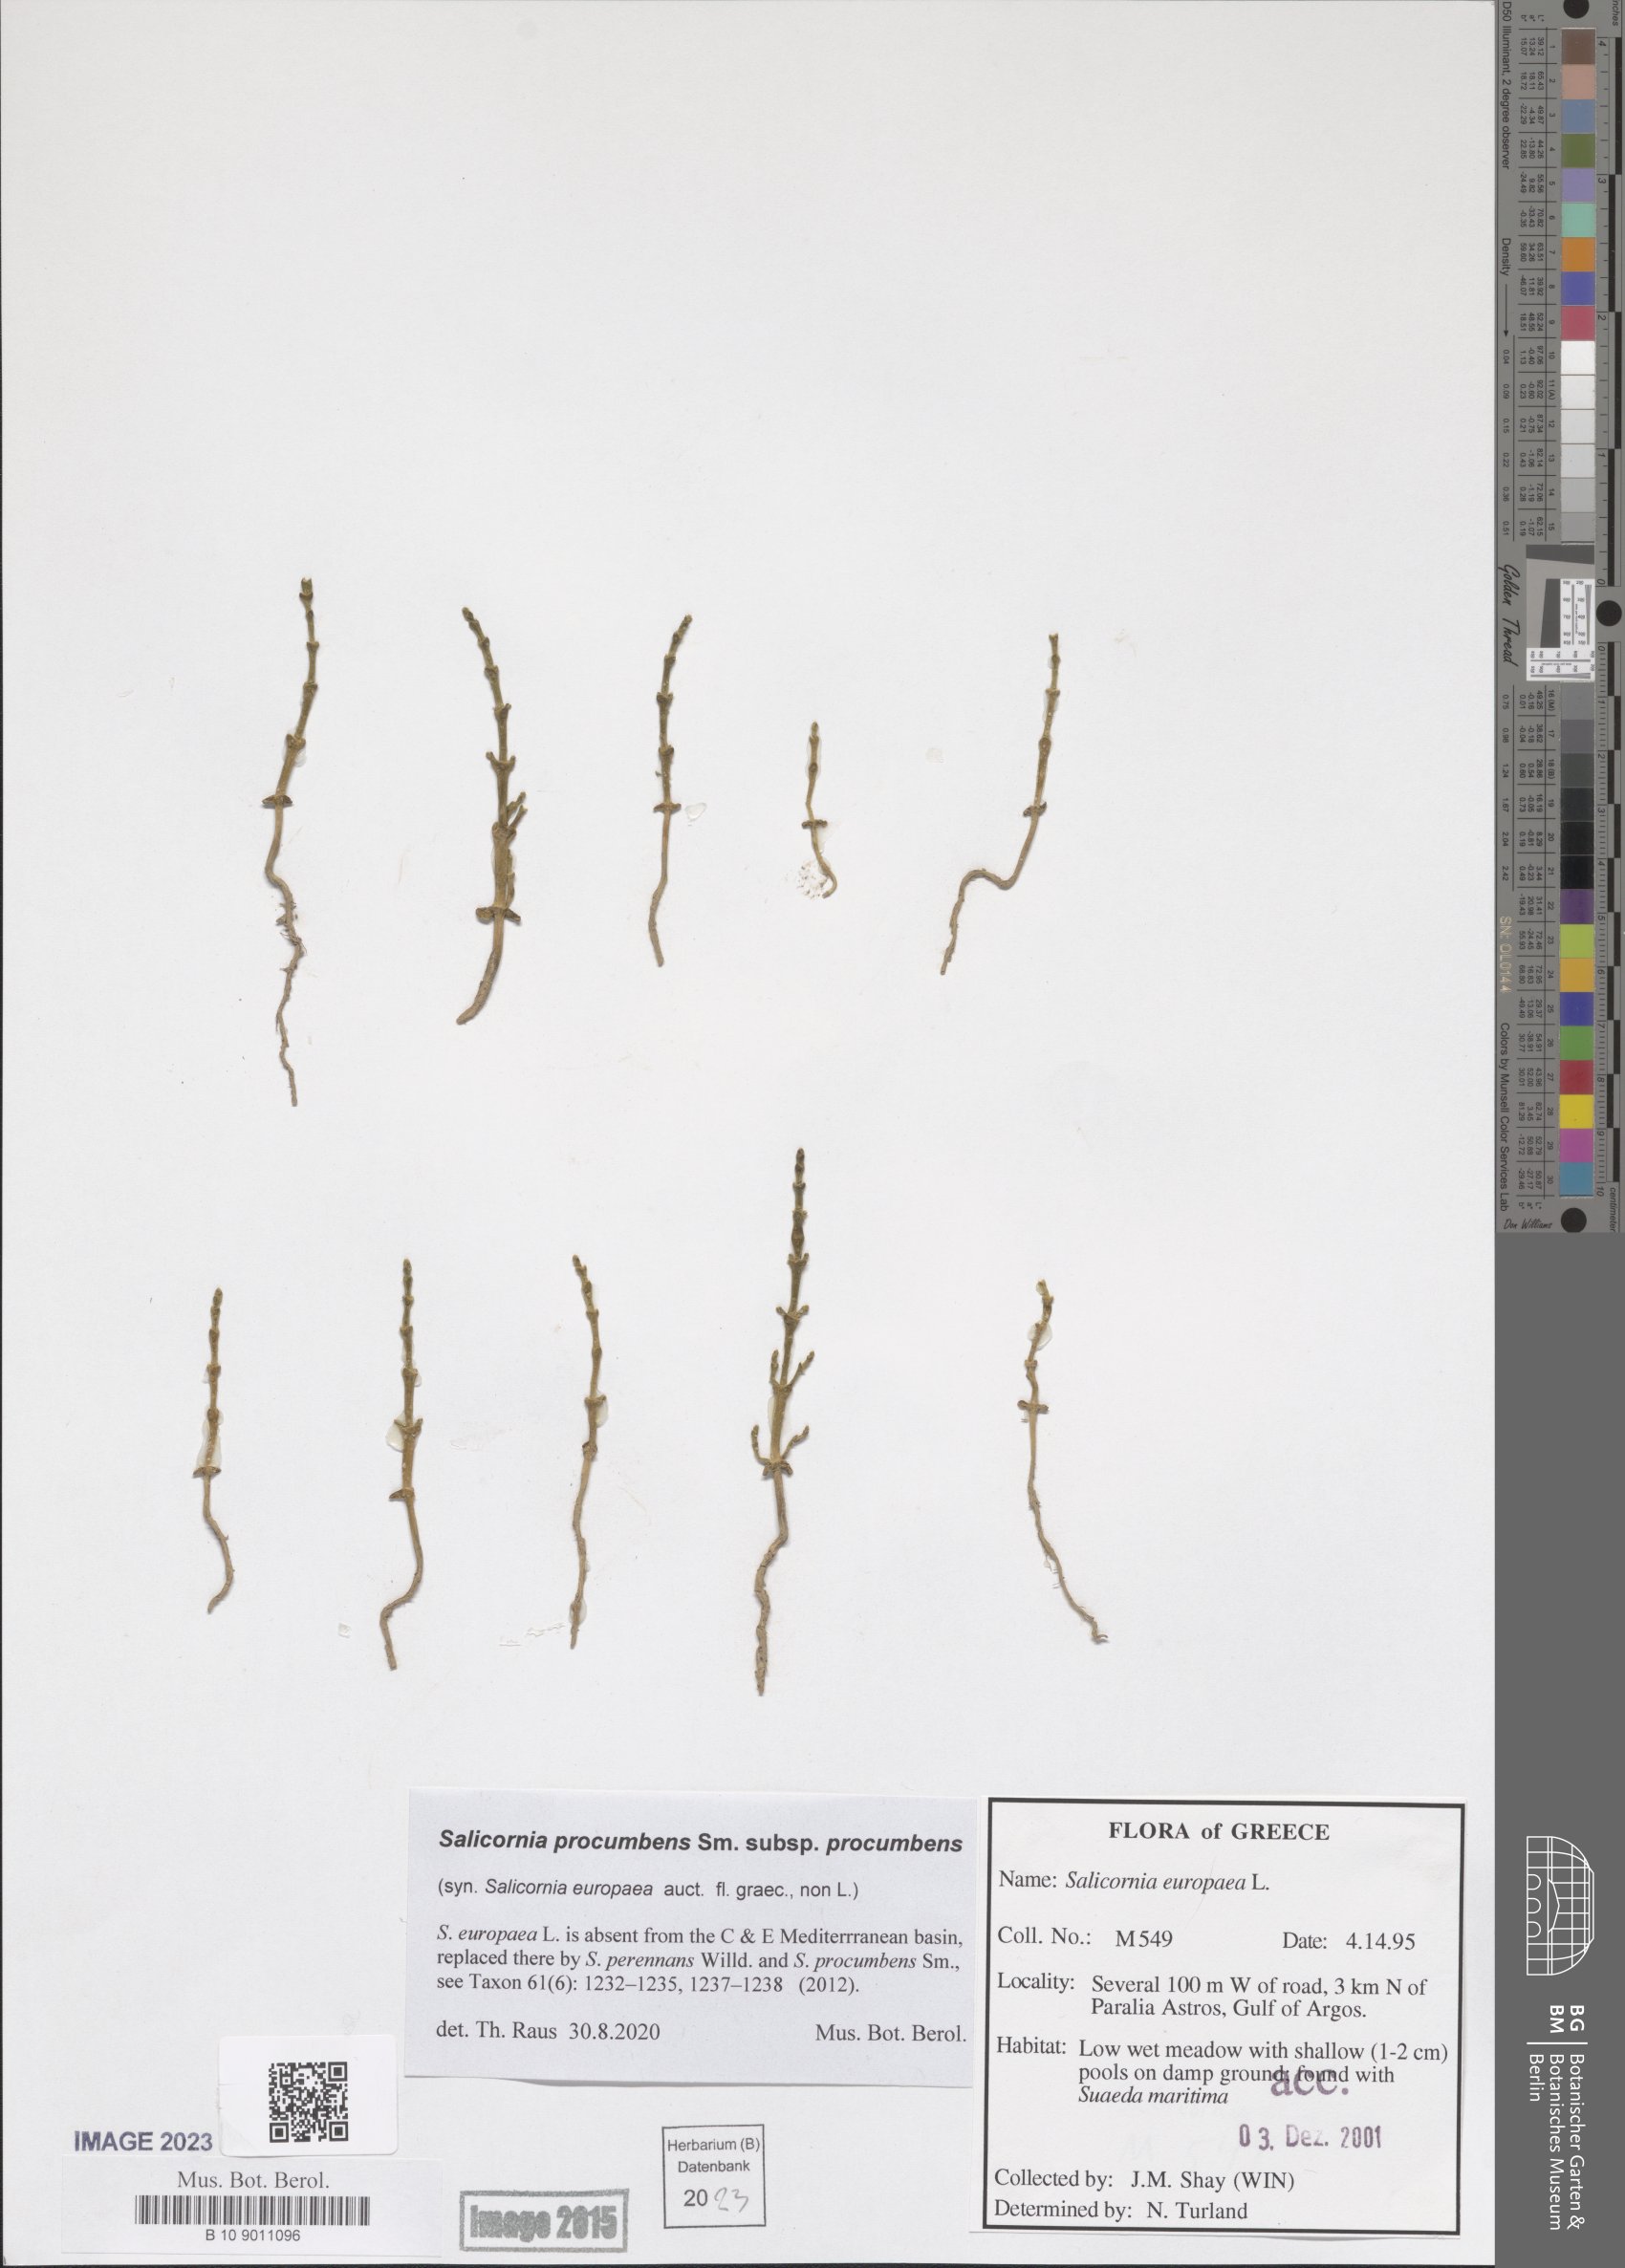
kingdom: Plantae
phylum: Tracheophyta
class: Magnoliopsida
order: Caryophyllales
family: Amaranthaceae
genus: Salicornia
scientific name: Salicornia procumbens
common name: Long-spiked glasswort
